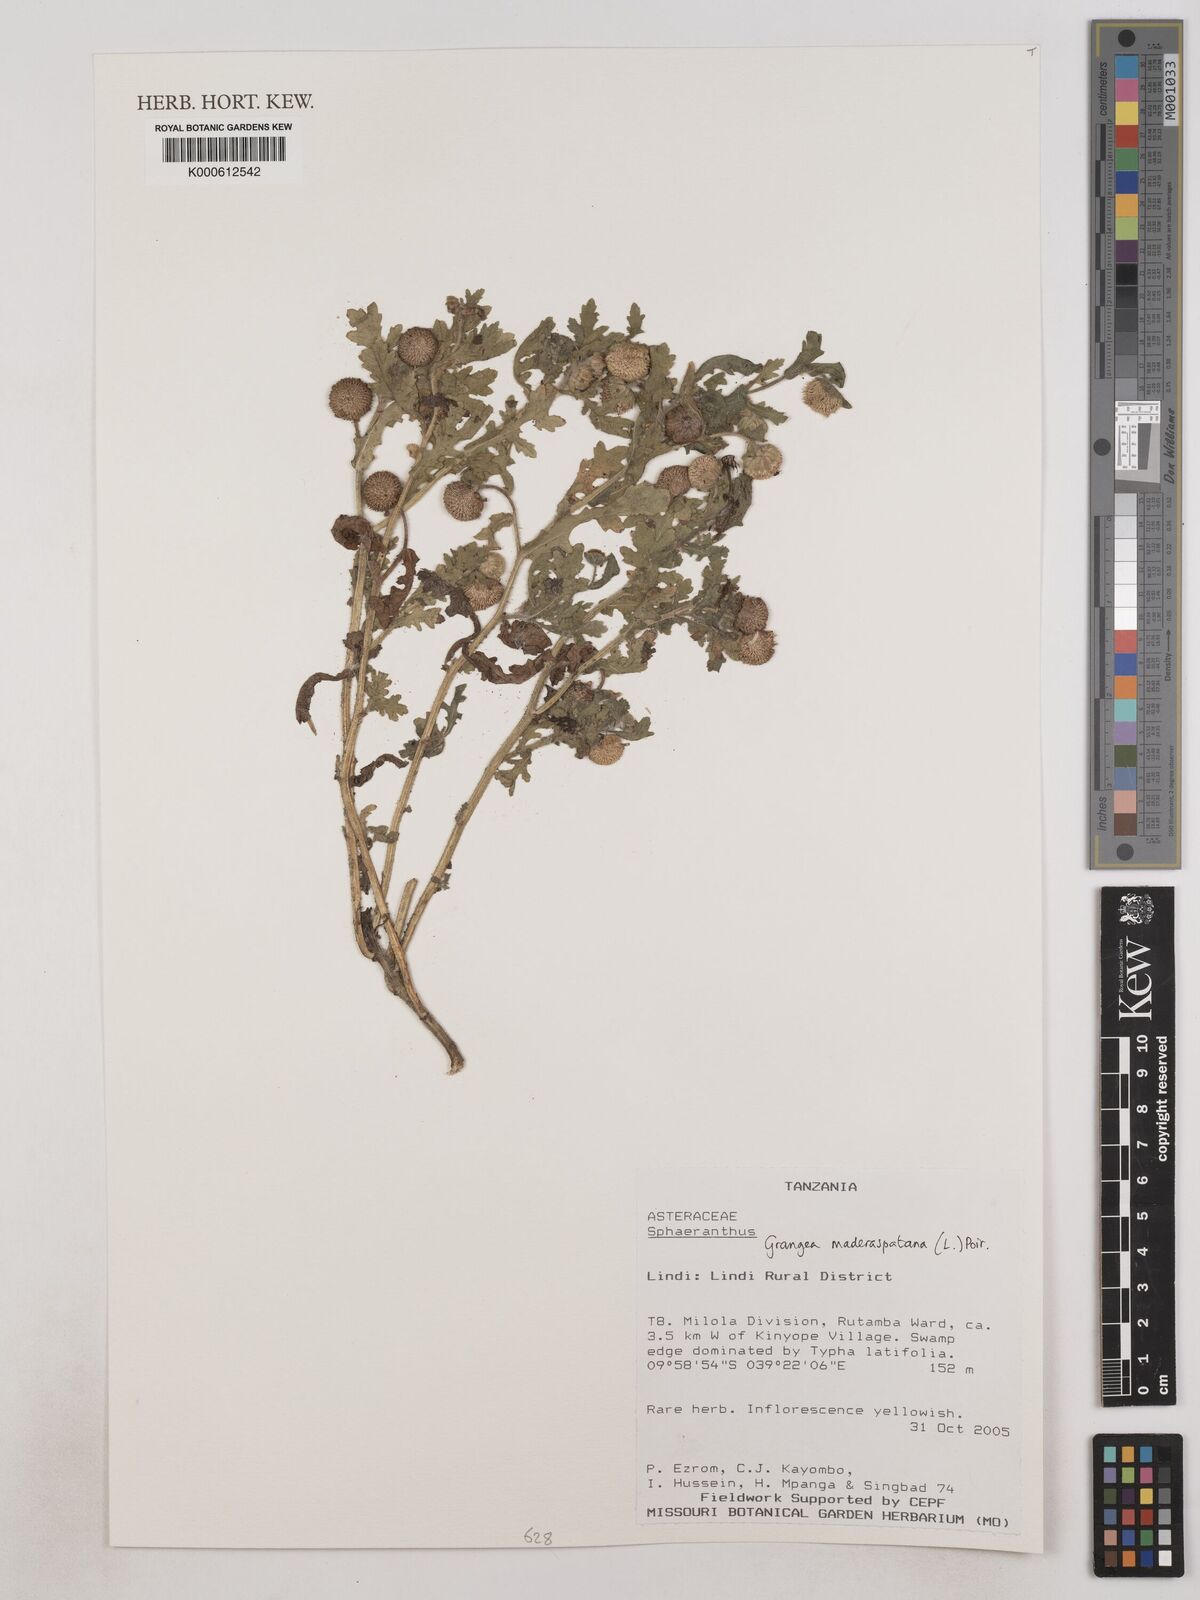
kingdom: Plantae
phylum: Tracheophyta
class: Magnoliopsida
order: Asterales
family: Asteraceae
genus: Grangea
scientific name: Grangea maderaspatana
